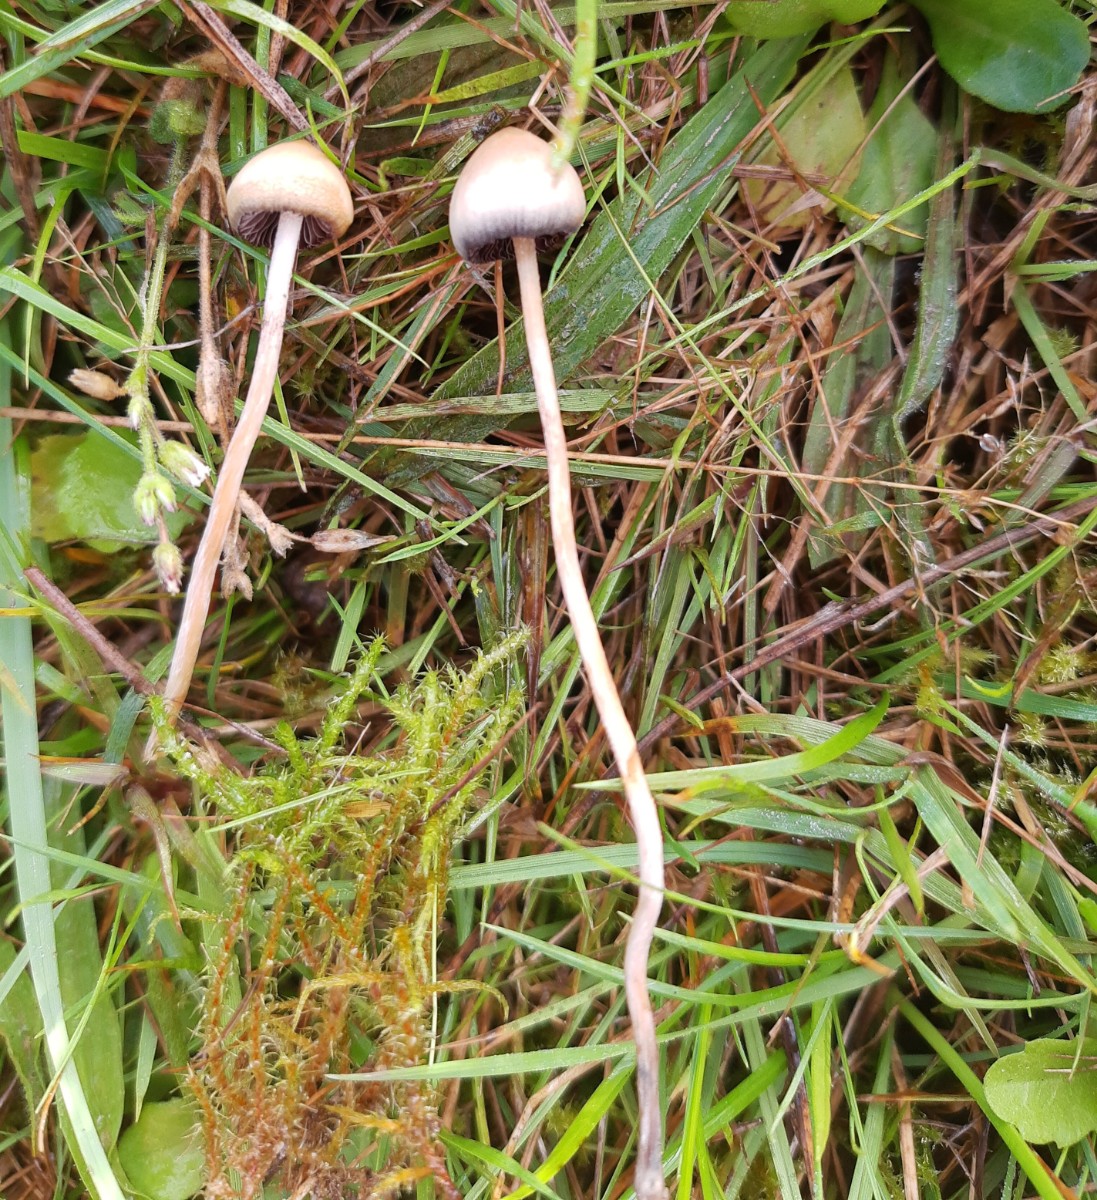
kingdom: Fungi
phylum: Basidiomycota
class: Agaricomycetes
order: Agaricales
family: Hymenogastraceae
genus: Psilocybe
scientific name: Psilocybe semilanceata
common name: spids nøgenhat
